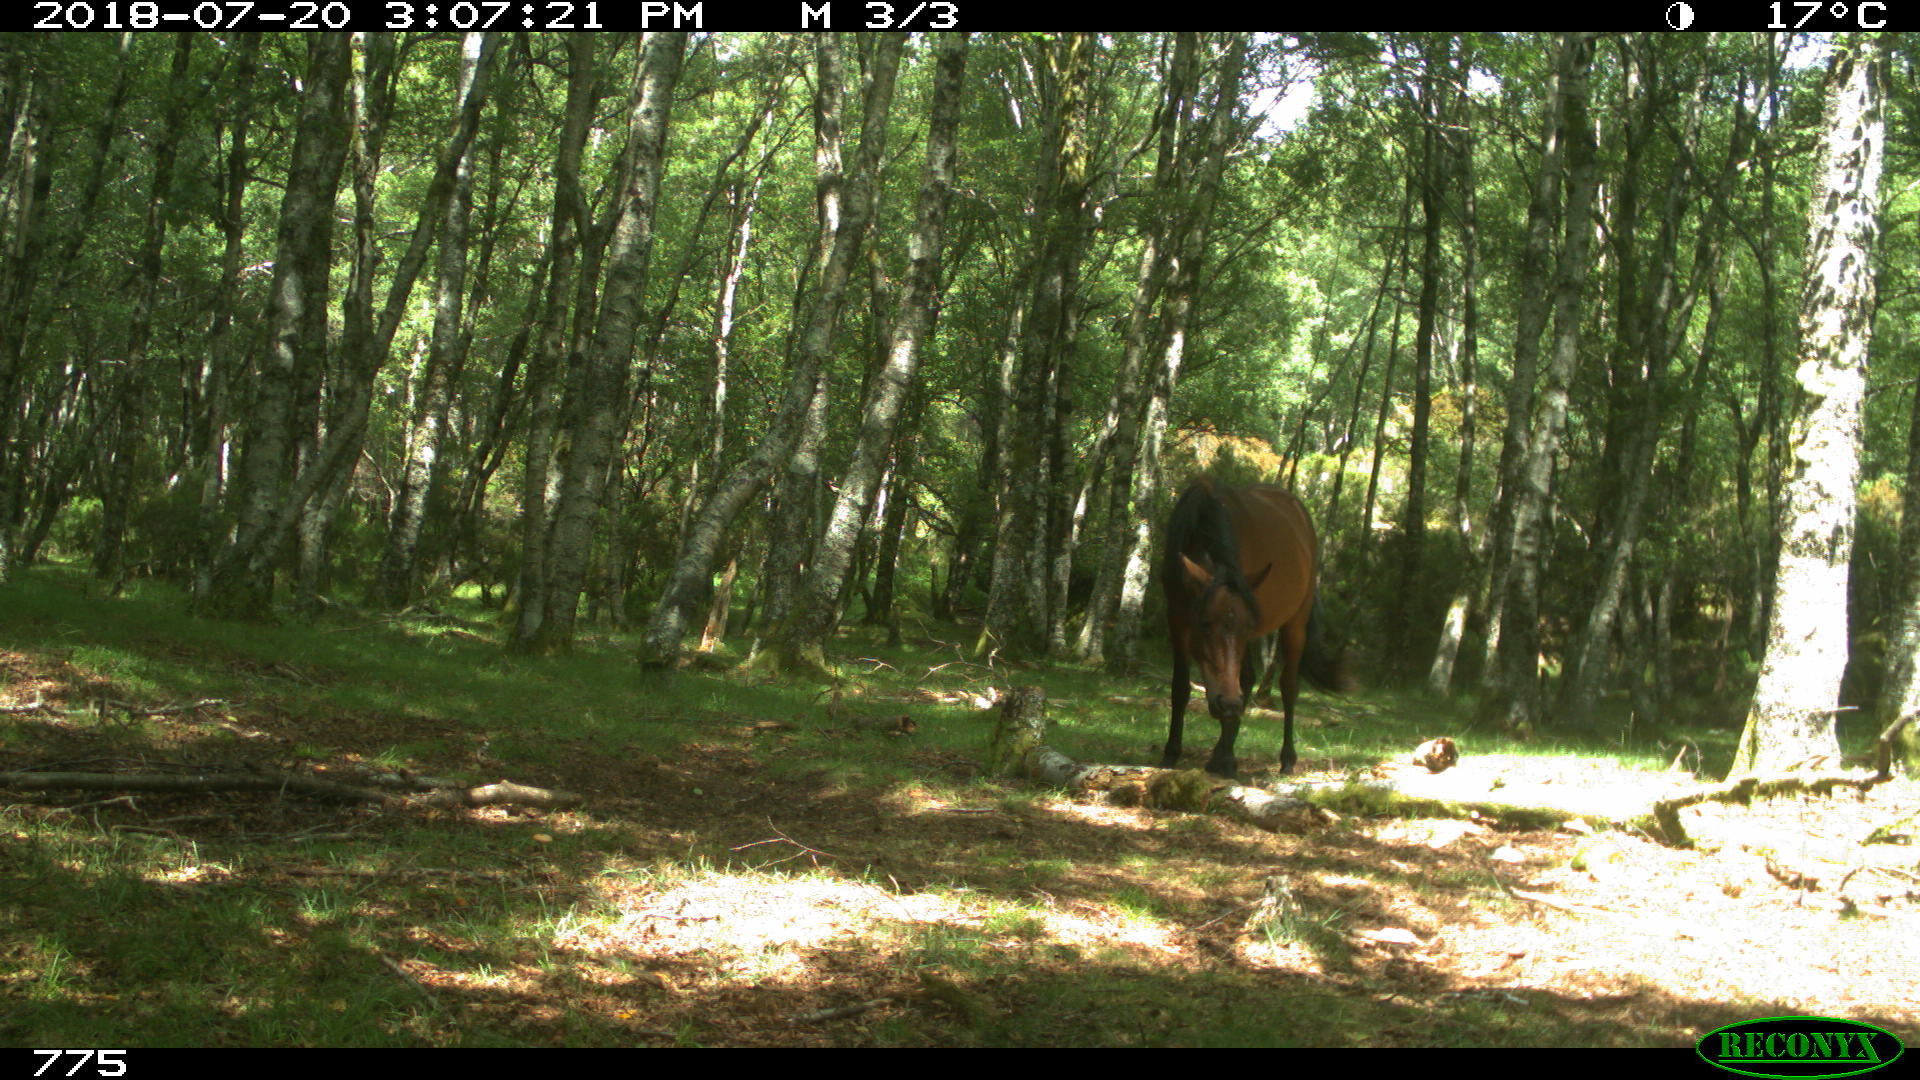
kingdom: Animalia
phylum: Chordata
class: Mammalia
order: Perissodactyla
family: Equidae
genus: Equus
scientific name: Equus caballus
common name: Horse
